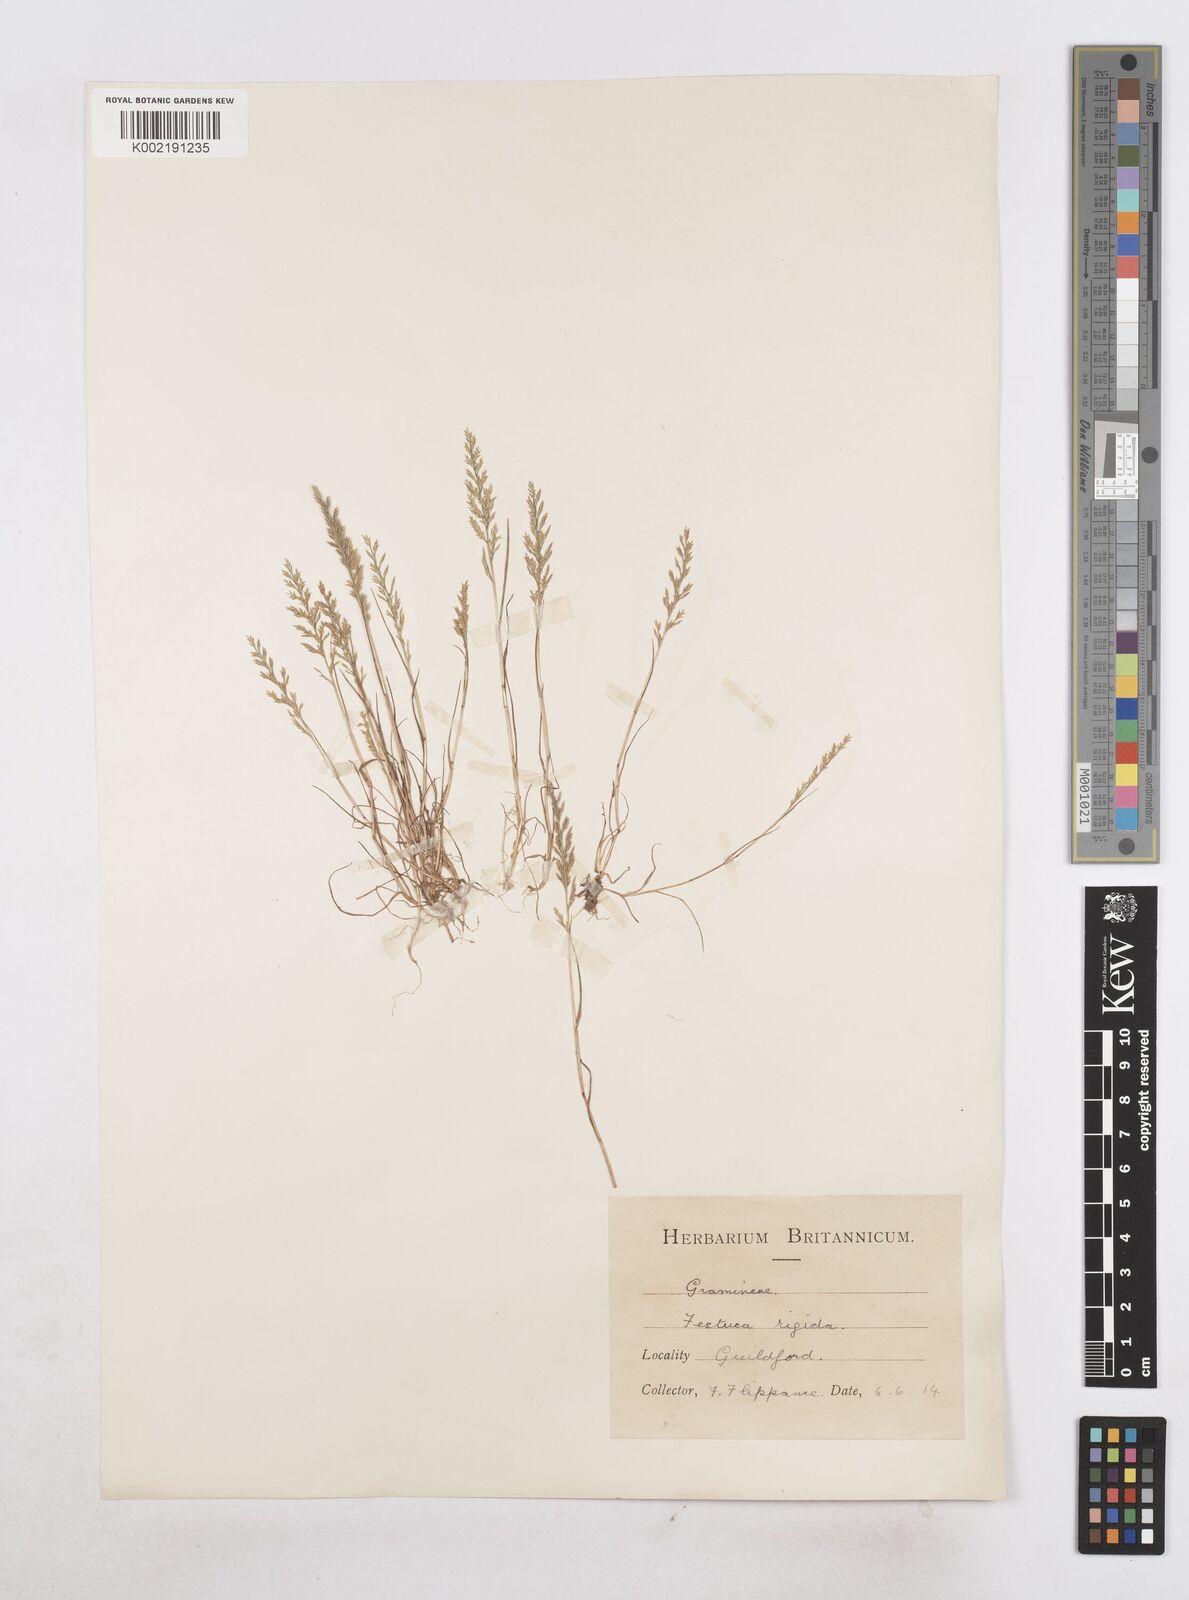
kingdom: Plantae
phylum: Tracheophyta
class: Liliopsida
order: Poales
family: Poaceae
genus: Catapodium
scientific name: Catapodium rigidum
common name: Fern-grass
